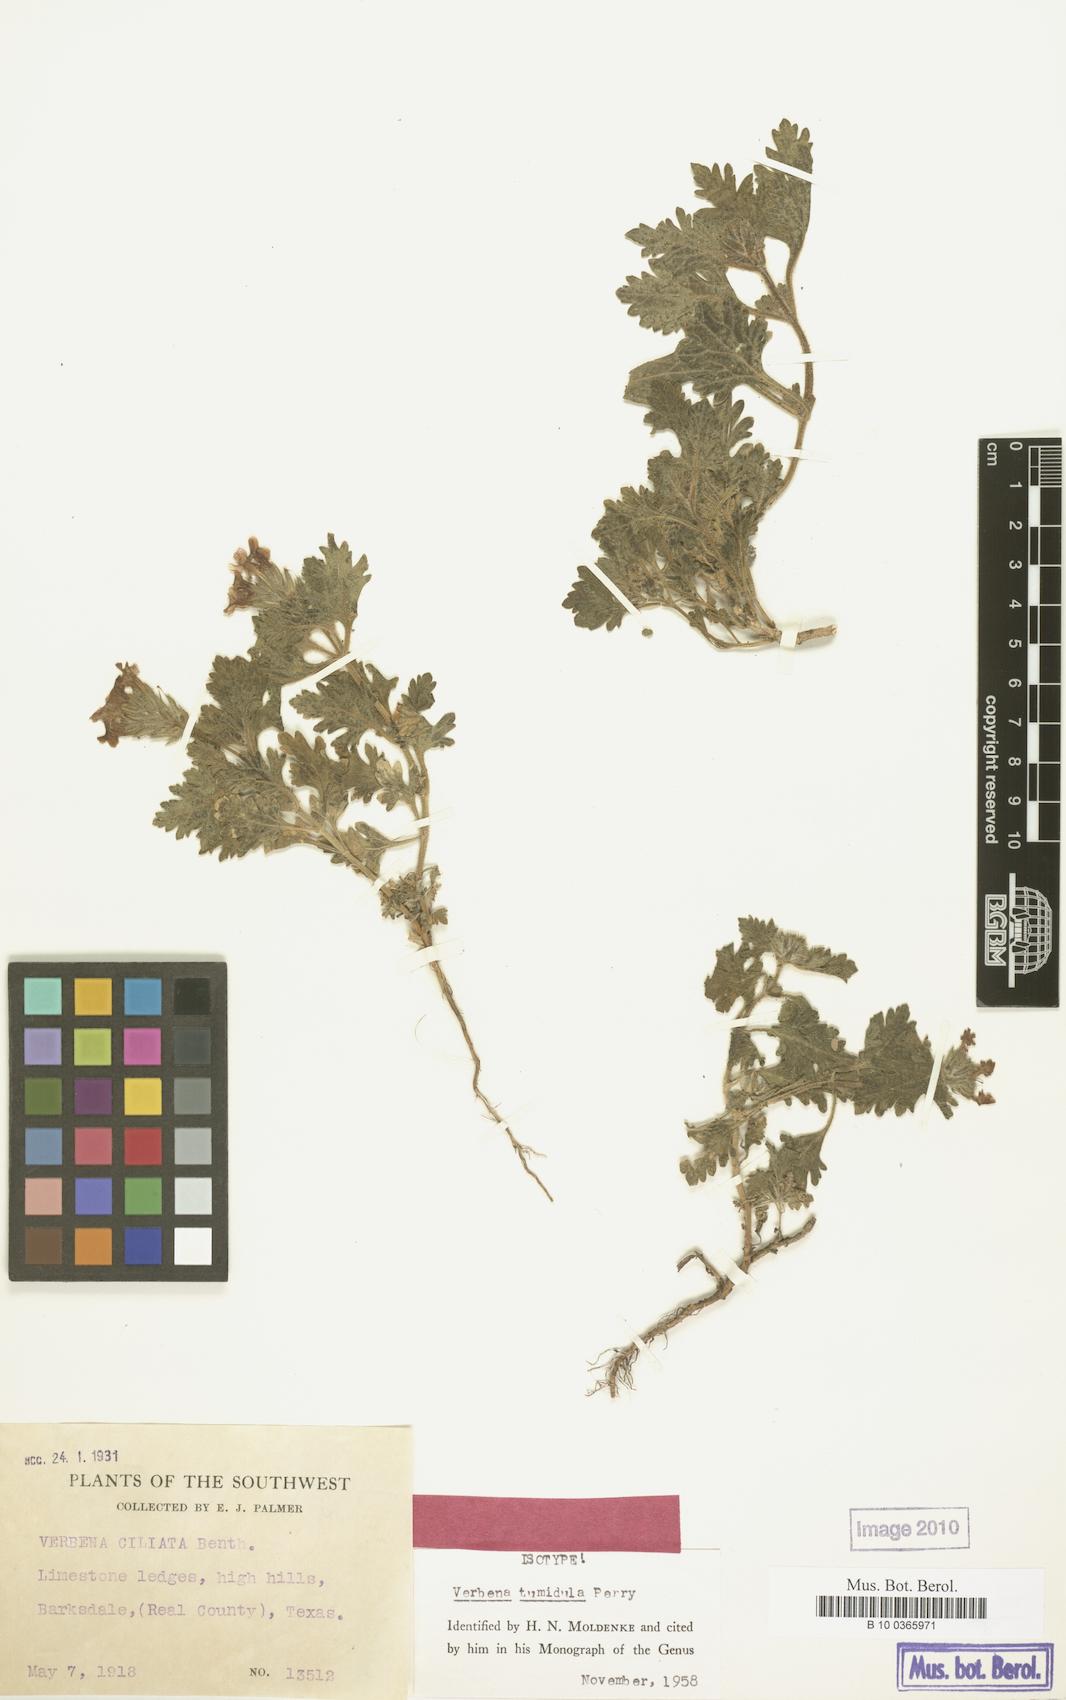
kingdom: Plantae
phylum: Tracheophyta
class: Magnoliopsida
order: Lamiales
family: Verbenaceae
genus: Verbena
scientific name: Verbena
